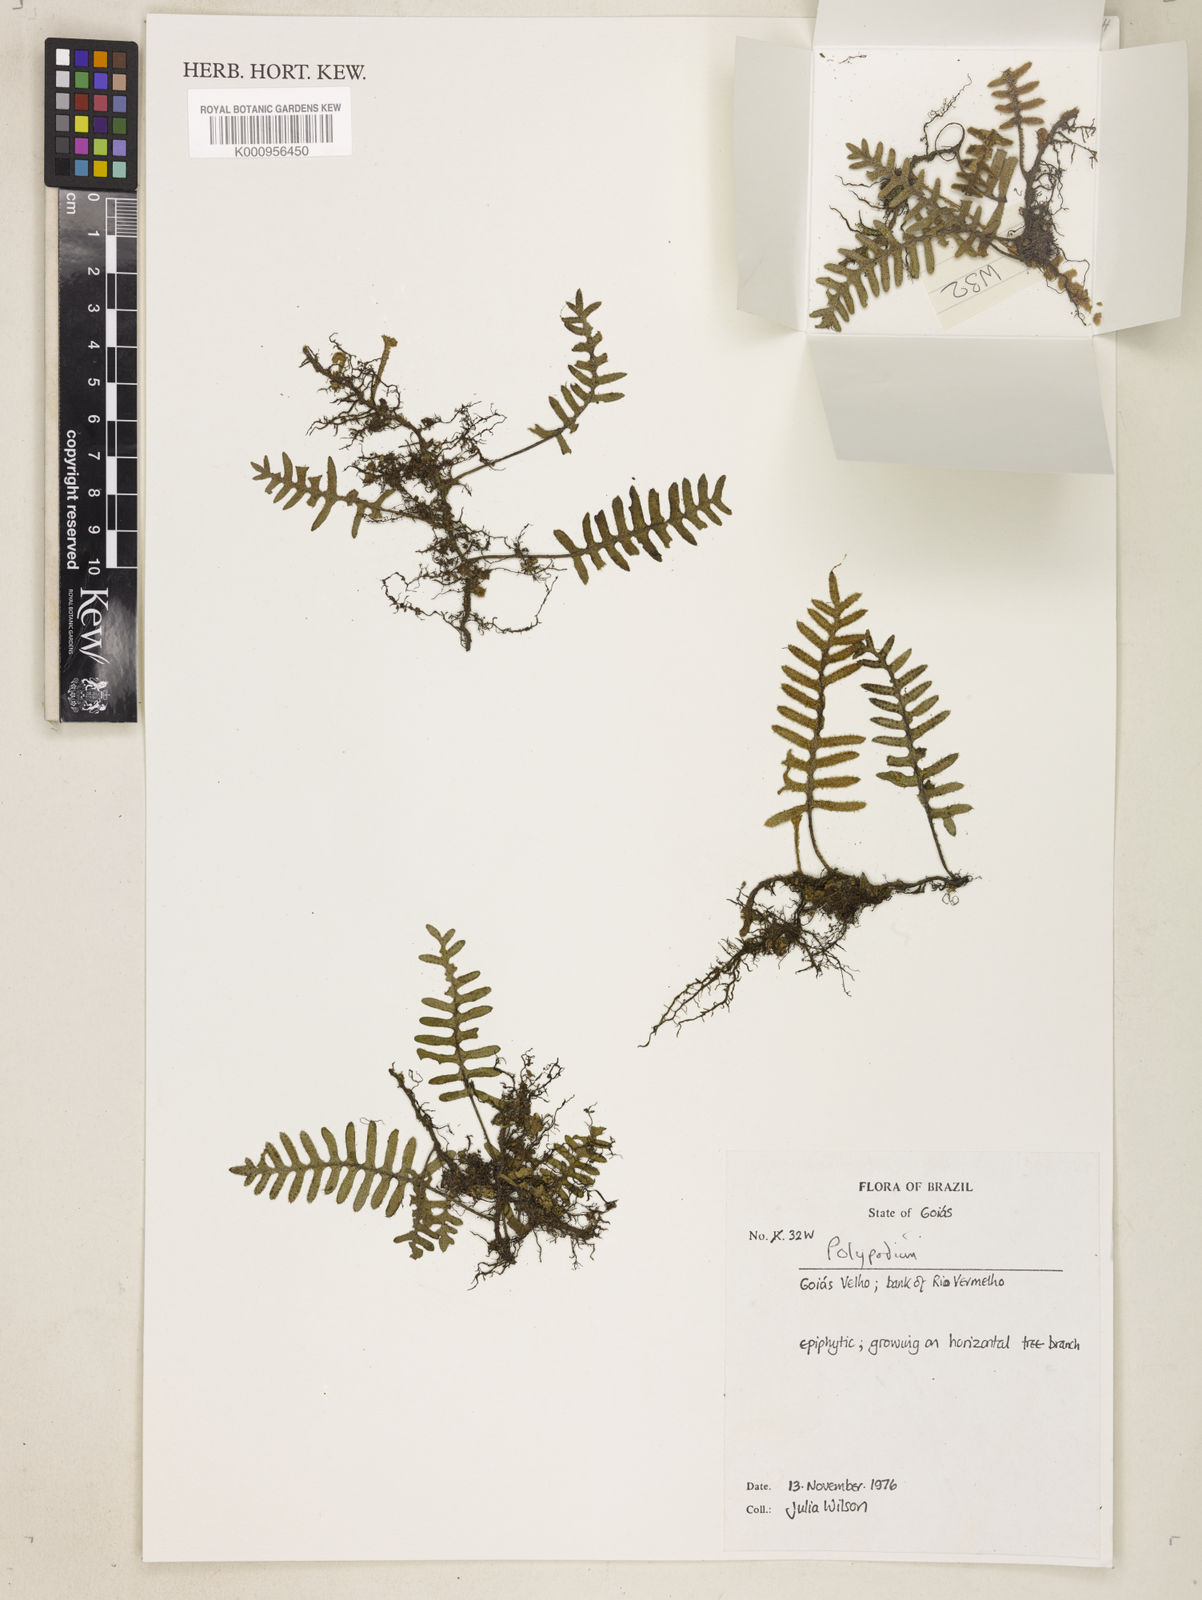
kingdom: Plantae
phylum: Tracheophyta
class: Polypodiopsida
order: Polypodiales
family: Polypodiaceae
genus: Polypodium
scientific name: Polypodium
